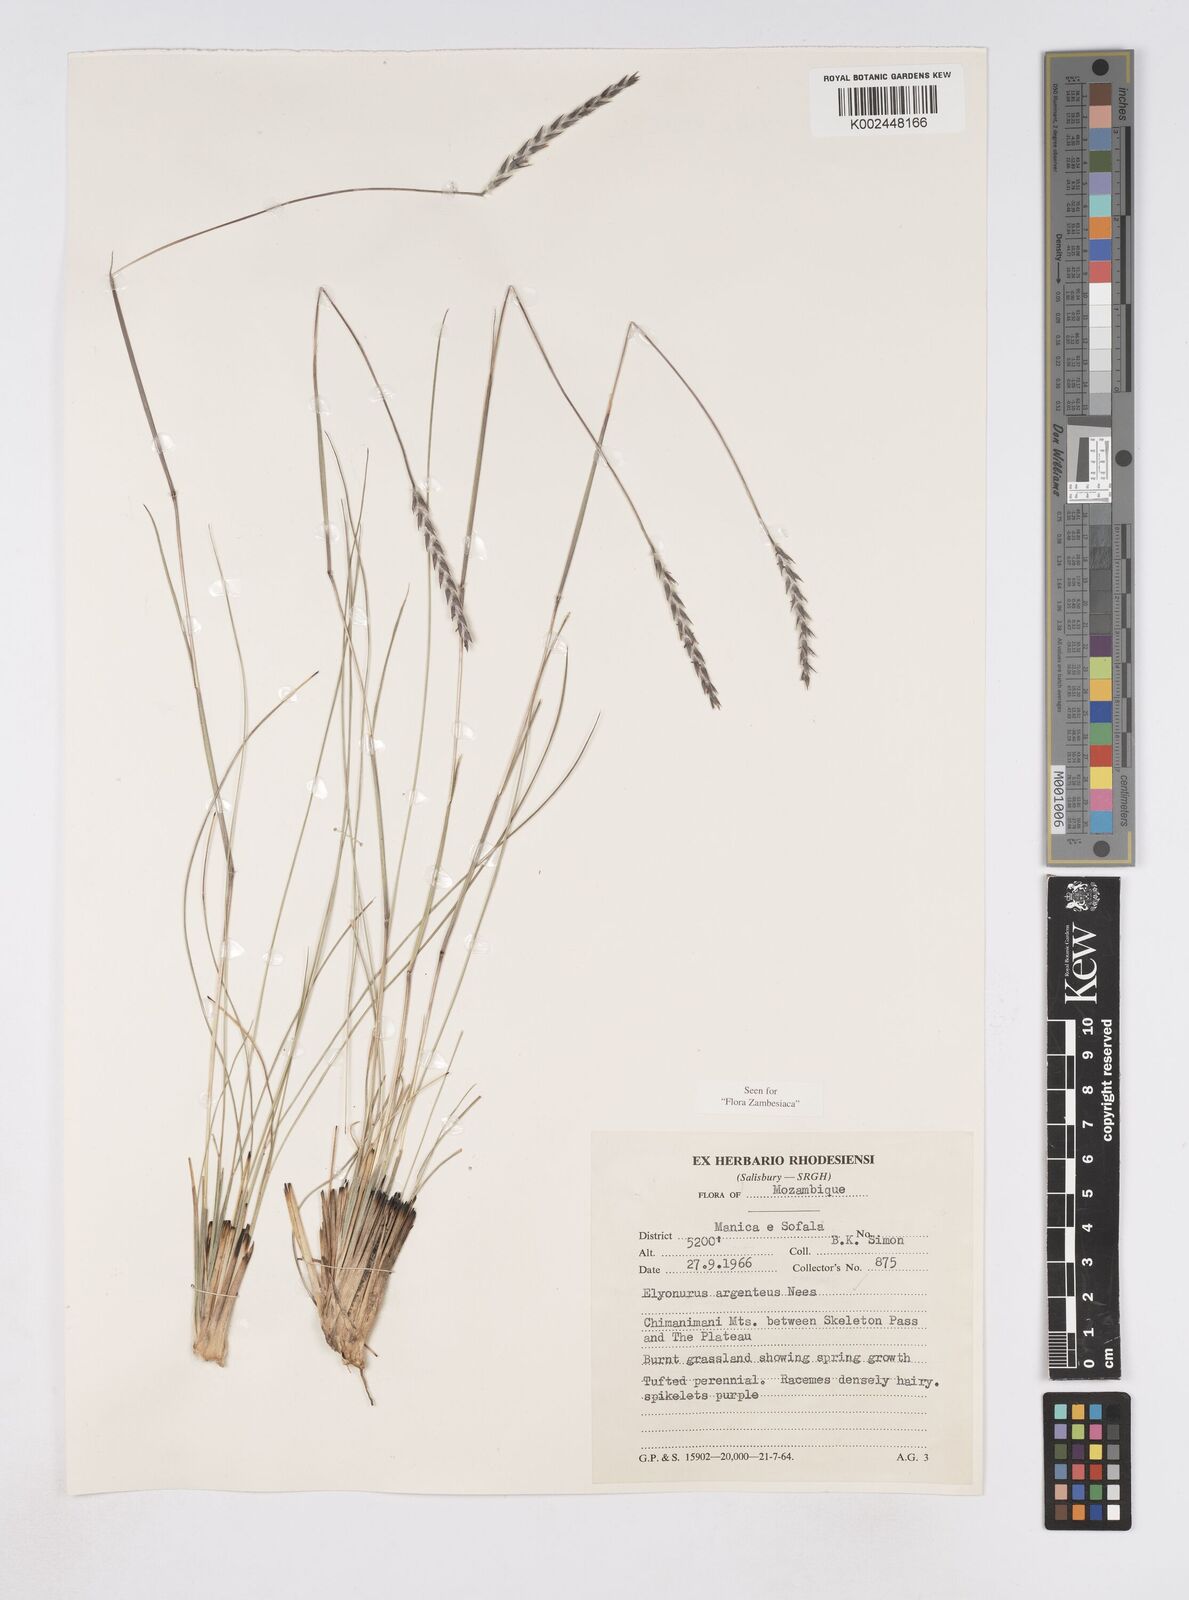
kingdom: Plantae
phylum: Tracheophyta
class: Liliopsida
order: Poales
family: Poaceae
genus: Elionurus
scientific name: Elionurus muticus
